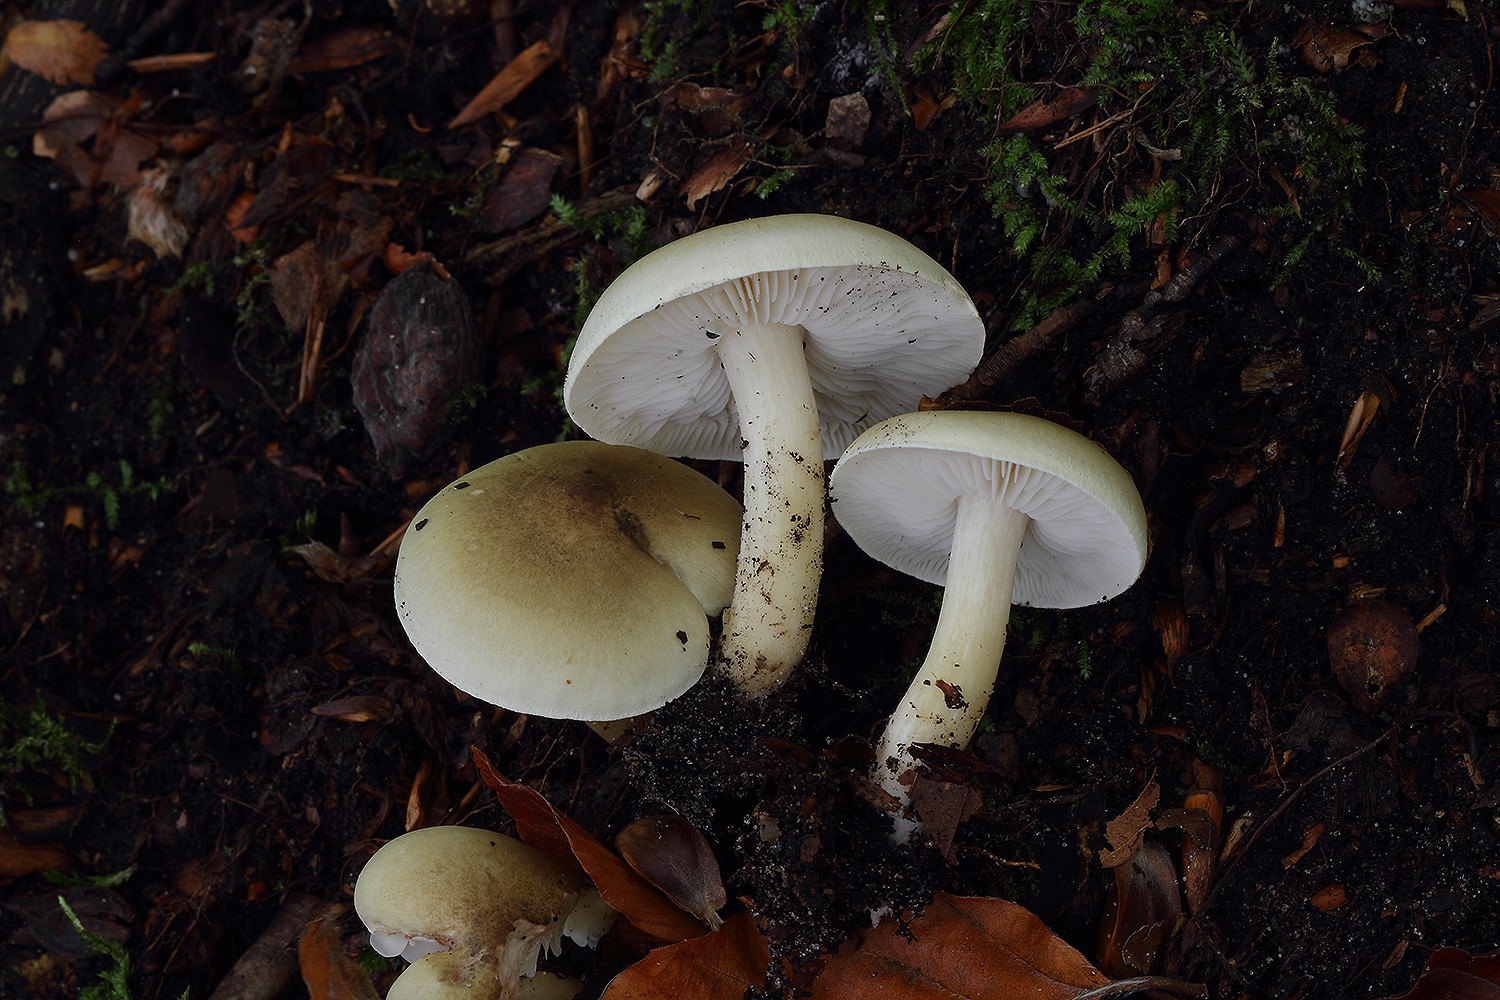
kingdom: Fungi
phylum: Basidiomycota
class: Agaricomycetes
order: Agaricales
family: Tricholomataceae
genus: Tricholoma
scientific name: Tricholoma saponaceum
